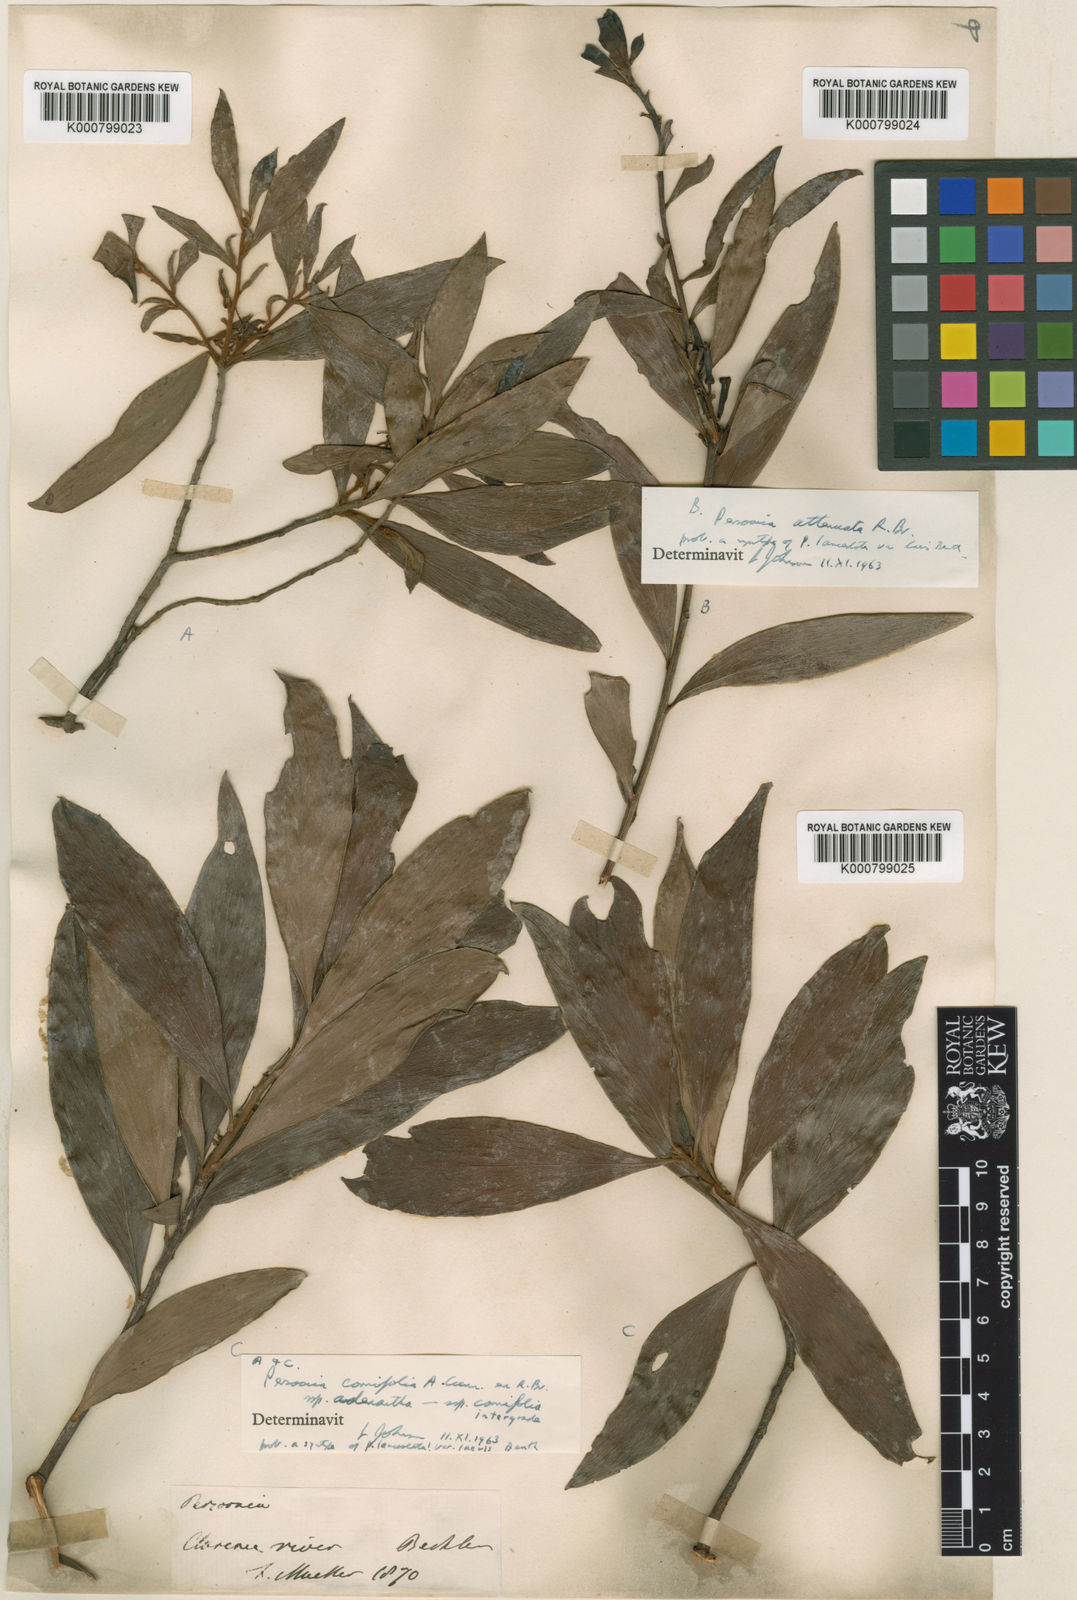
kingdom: Plantae
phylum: Tracheophyta
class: Magnoliopsida
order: Proteales
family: Proteaceae
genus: Persoonia
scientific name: Persoonia
